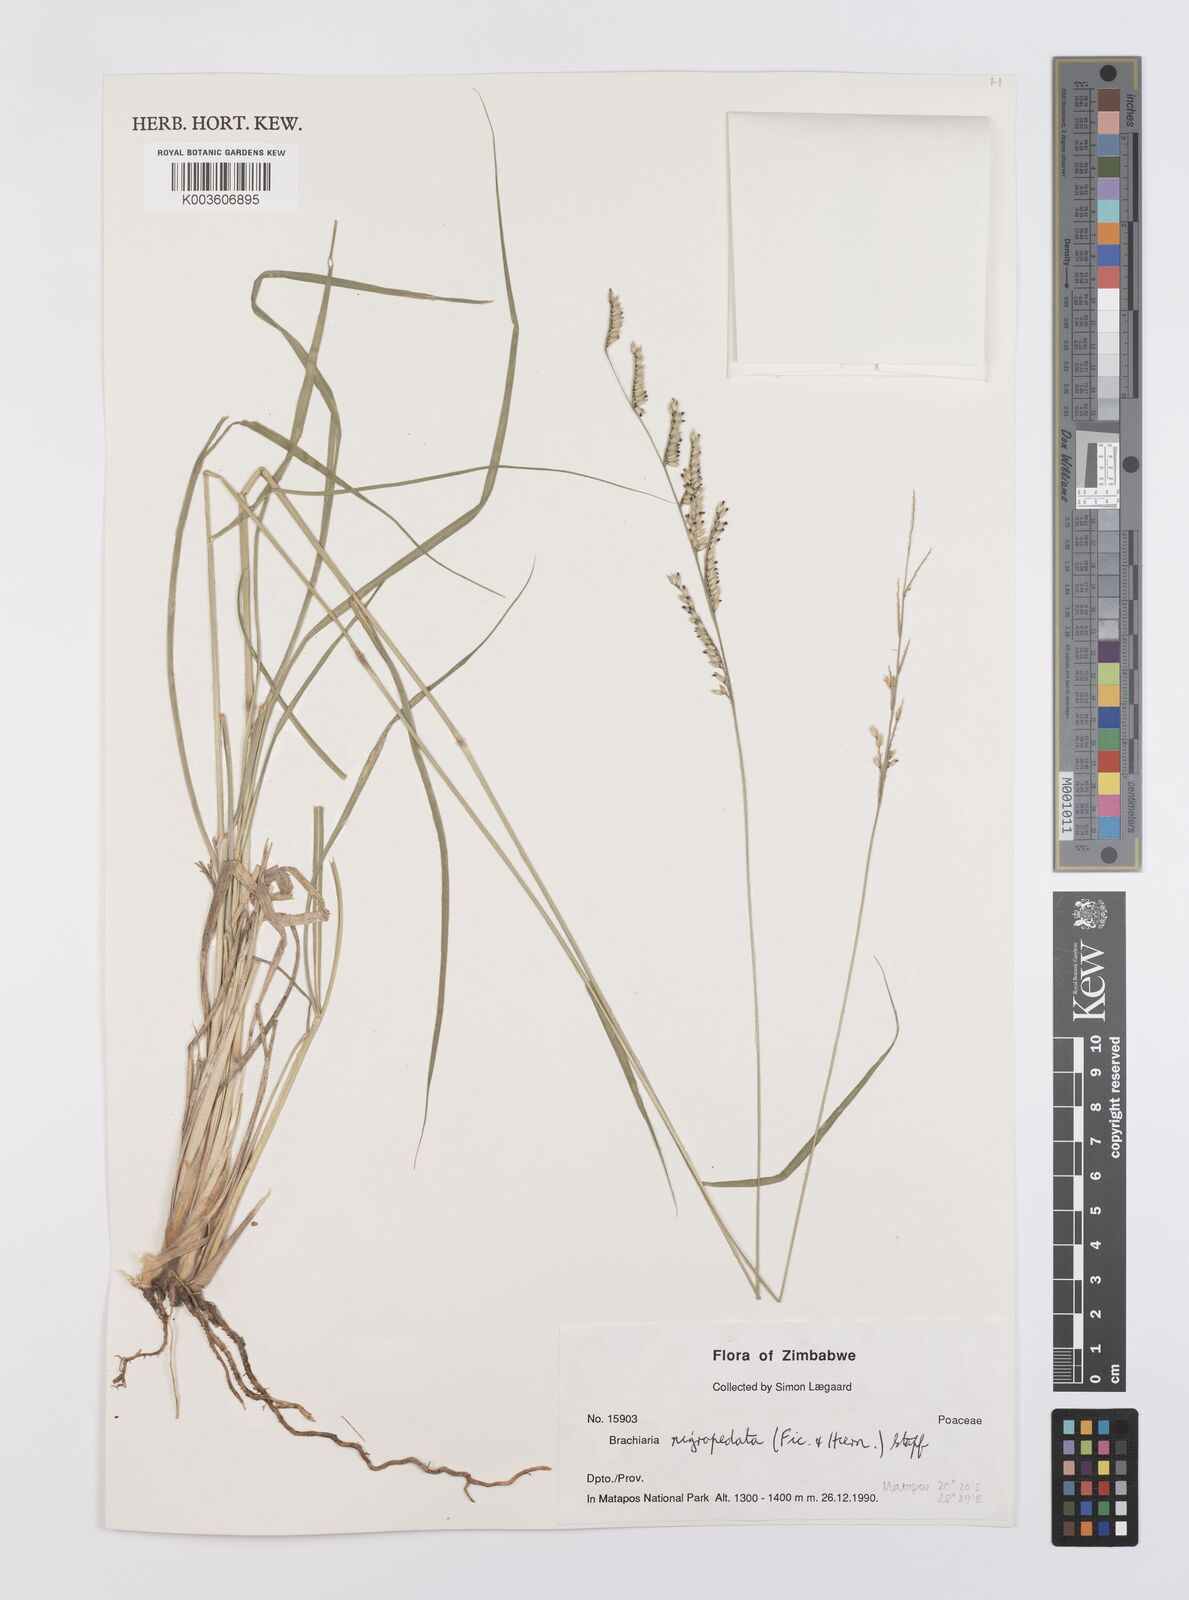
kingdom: Plantae
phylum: Tracheophyta
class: Liliopsida
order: Poales
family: Poaceae
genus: Urochloa
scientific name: Urochloa nigropedata
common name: Spotted signal grass
